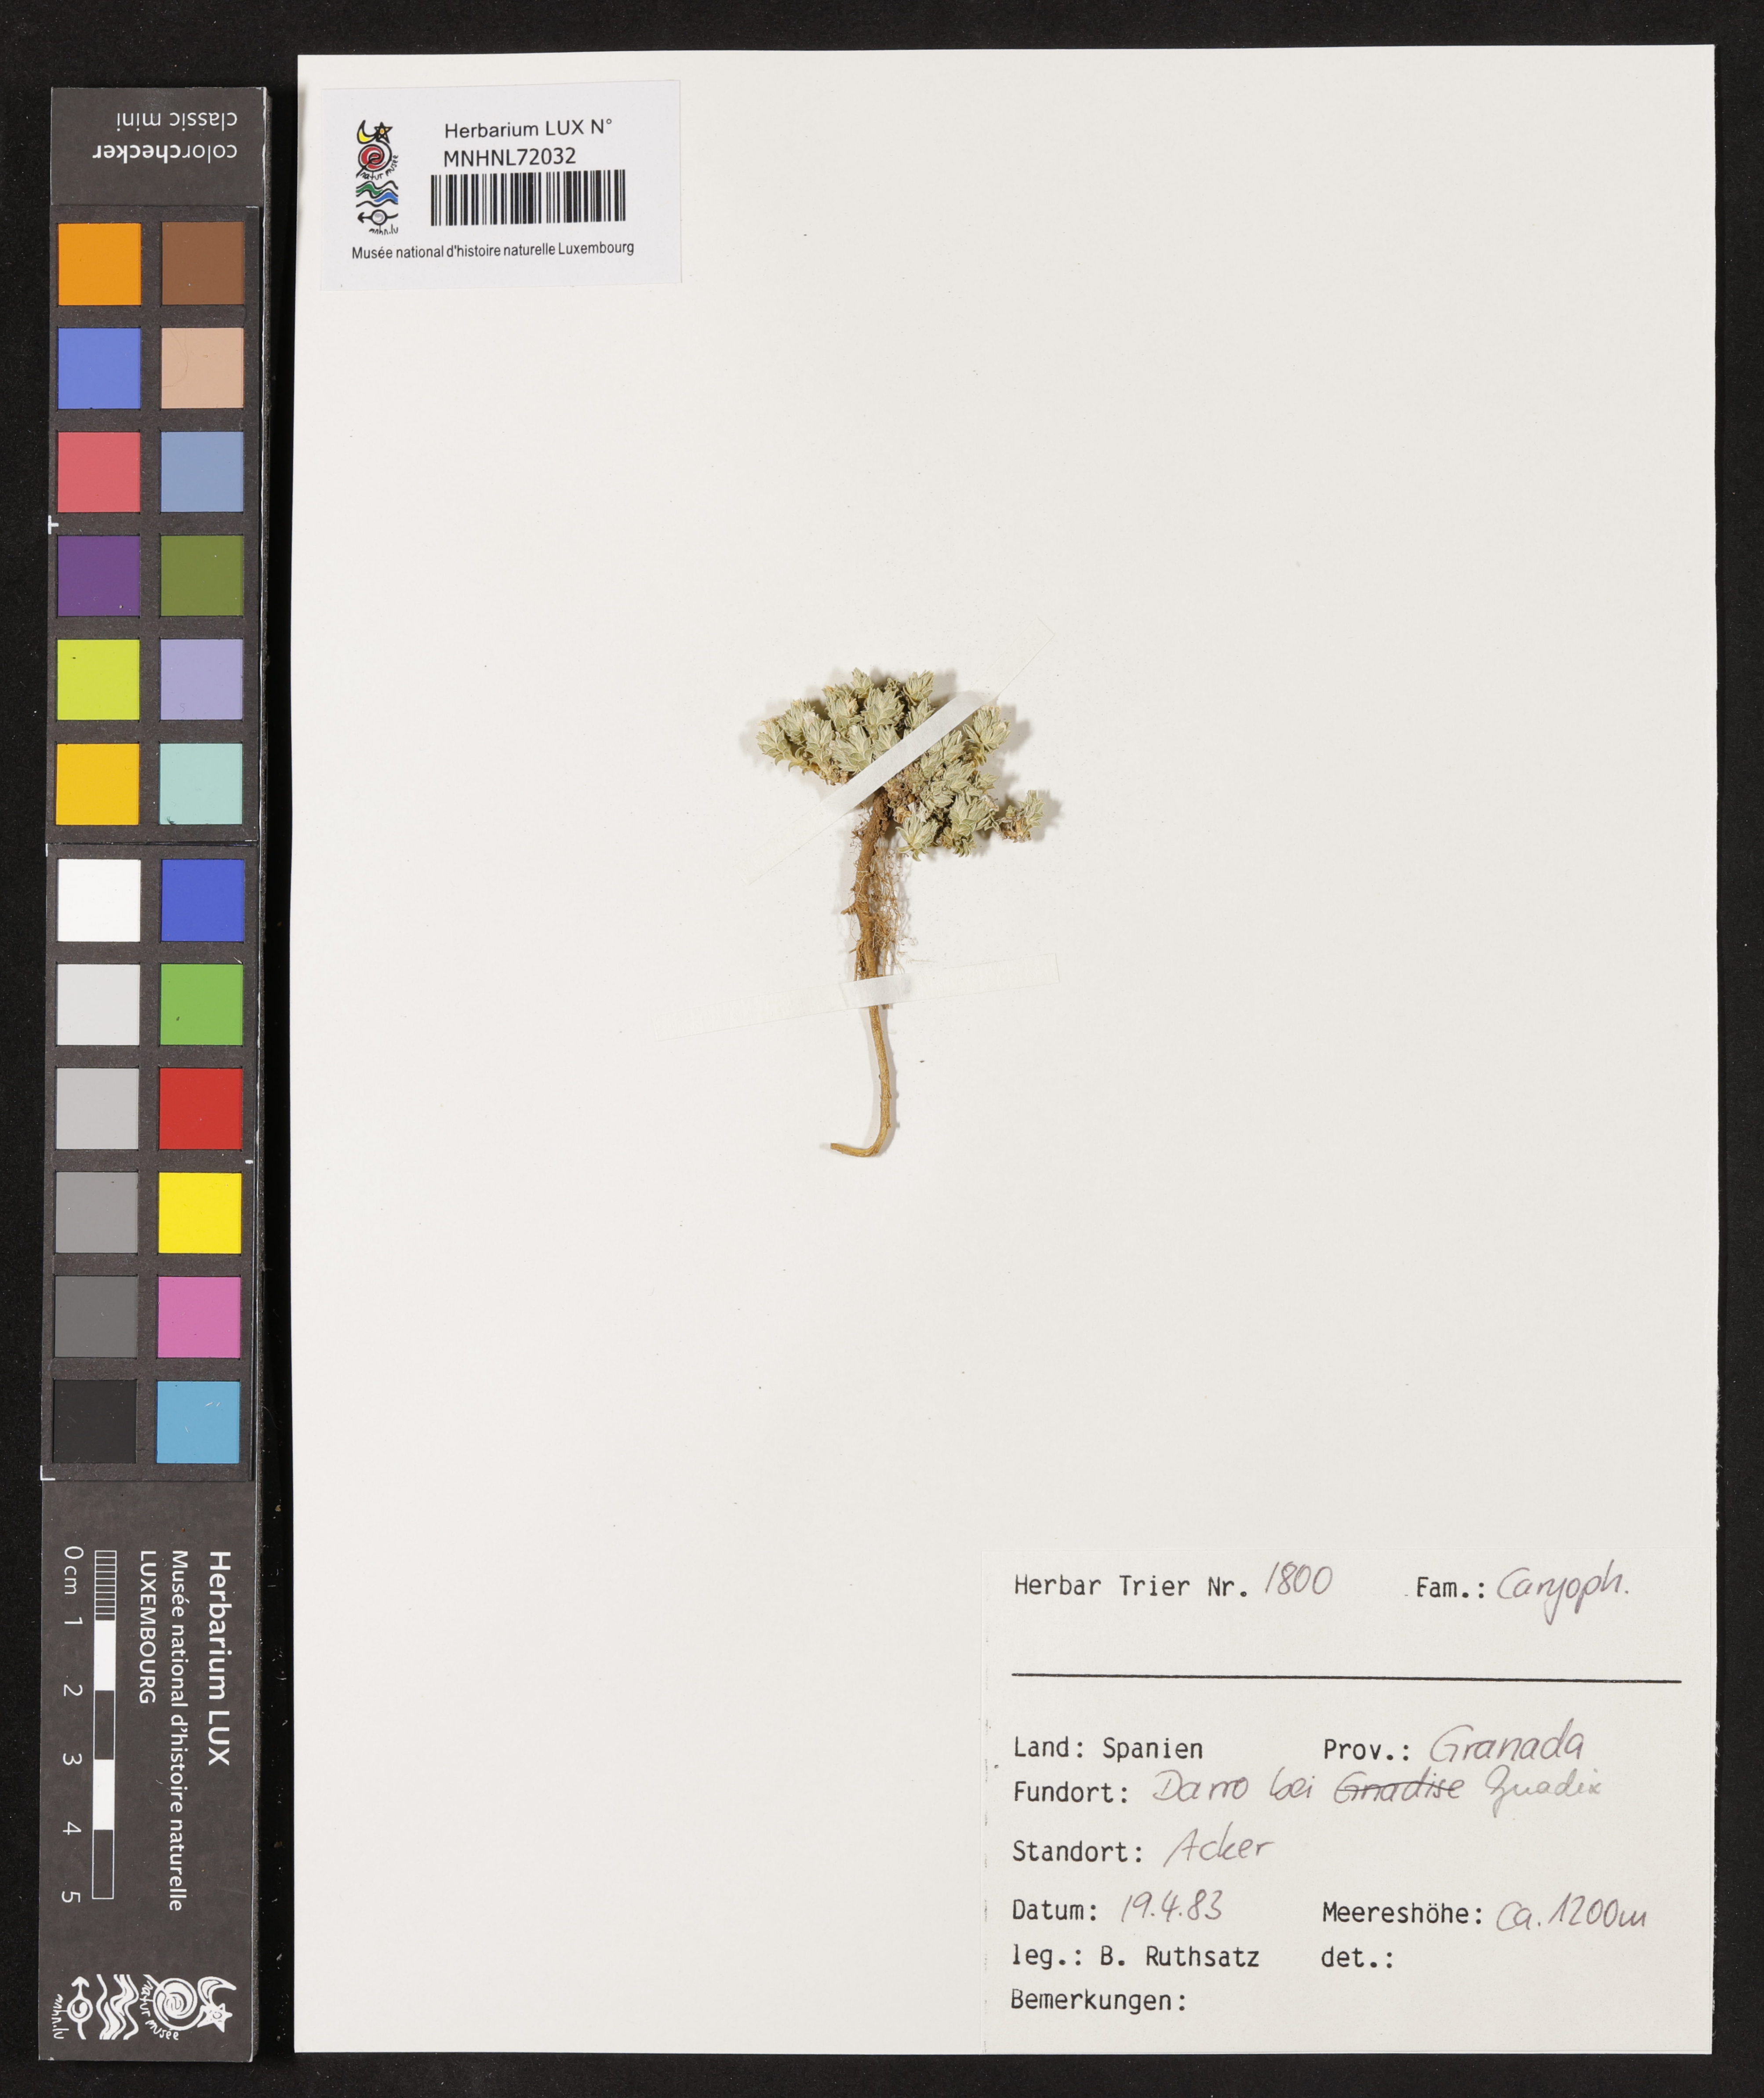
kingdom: Plantae
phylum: Tracheophyta
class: Magnoliopsida
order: Caryophyllales
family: Caryophyllaceae
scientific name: Caryophyllaceae
